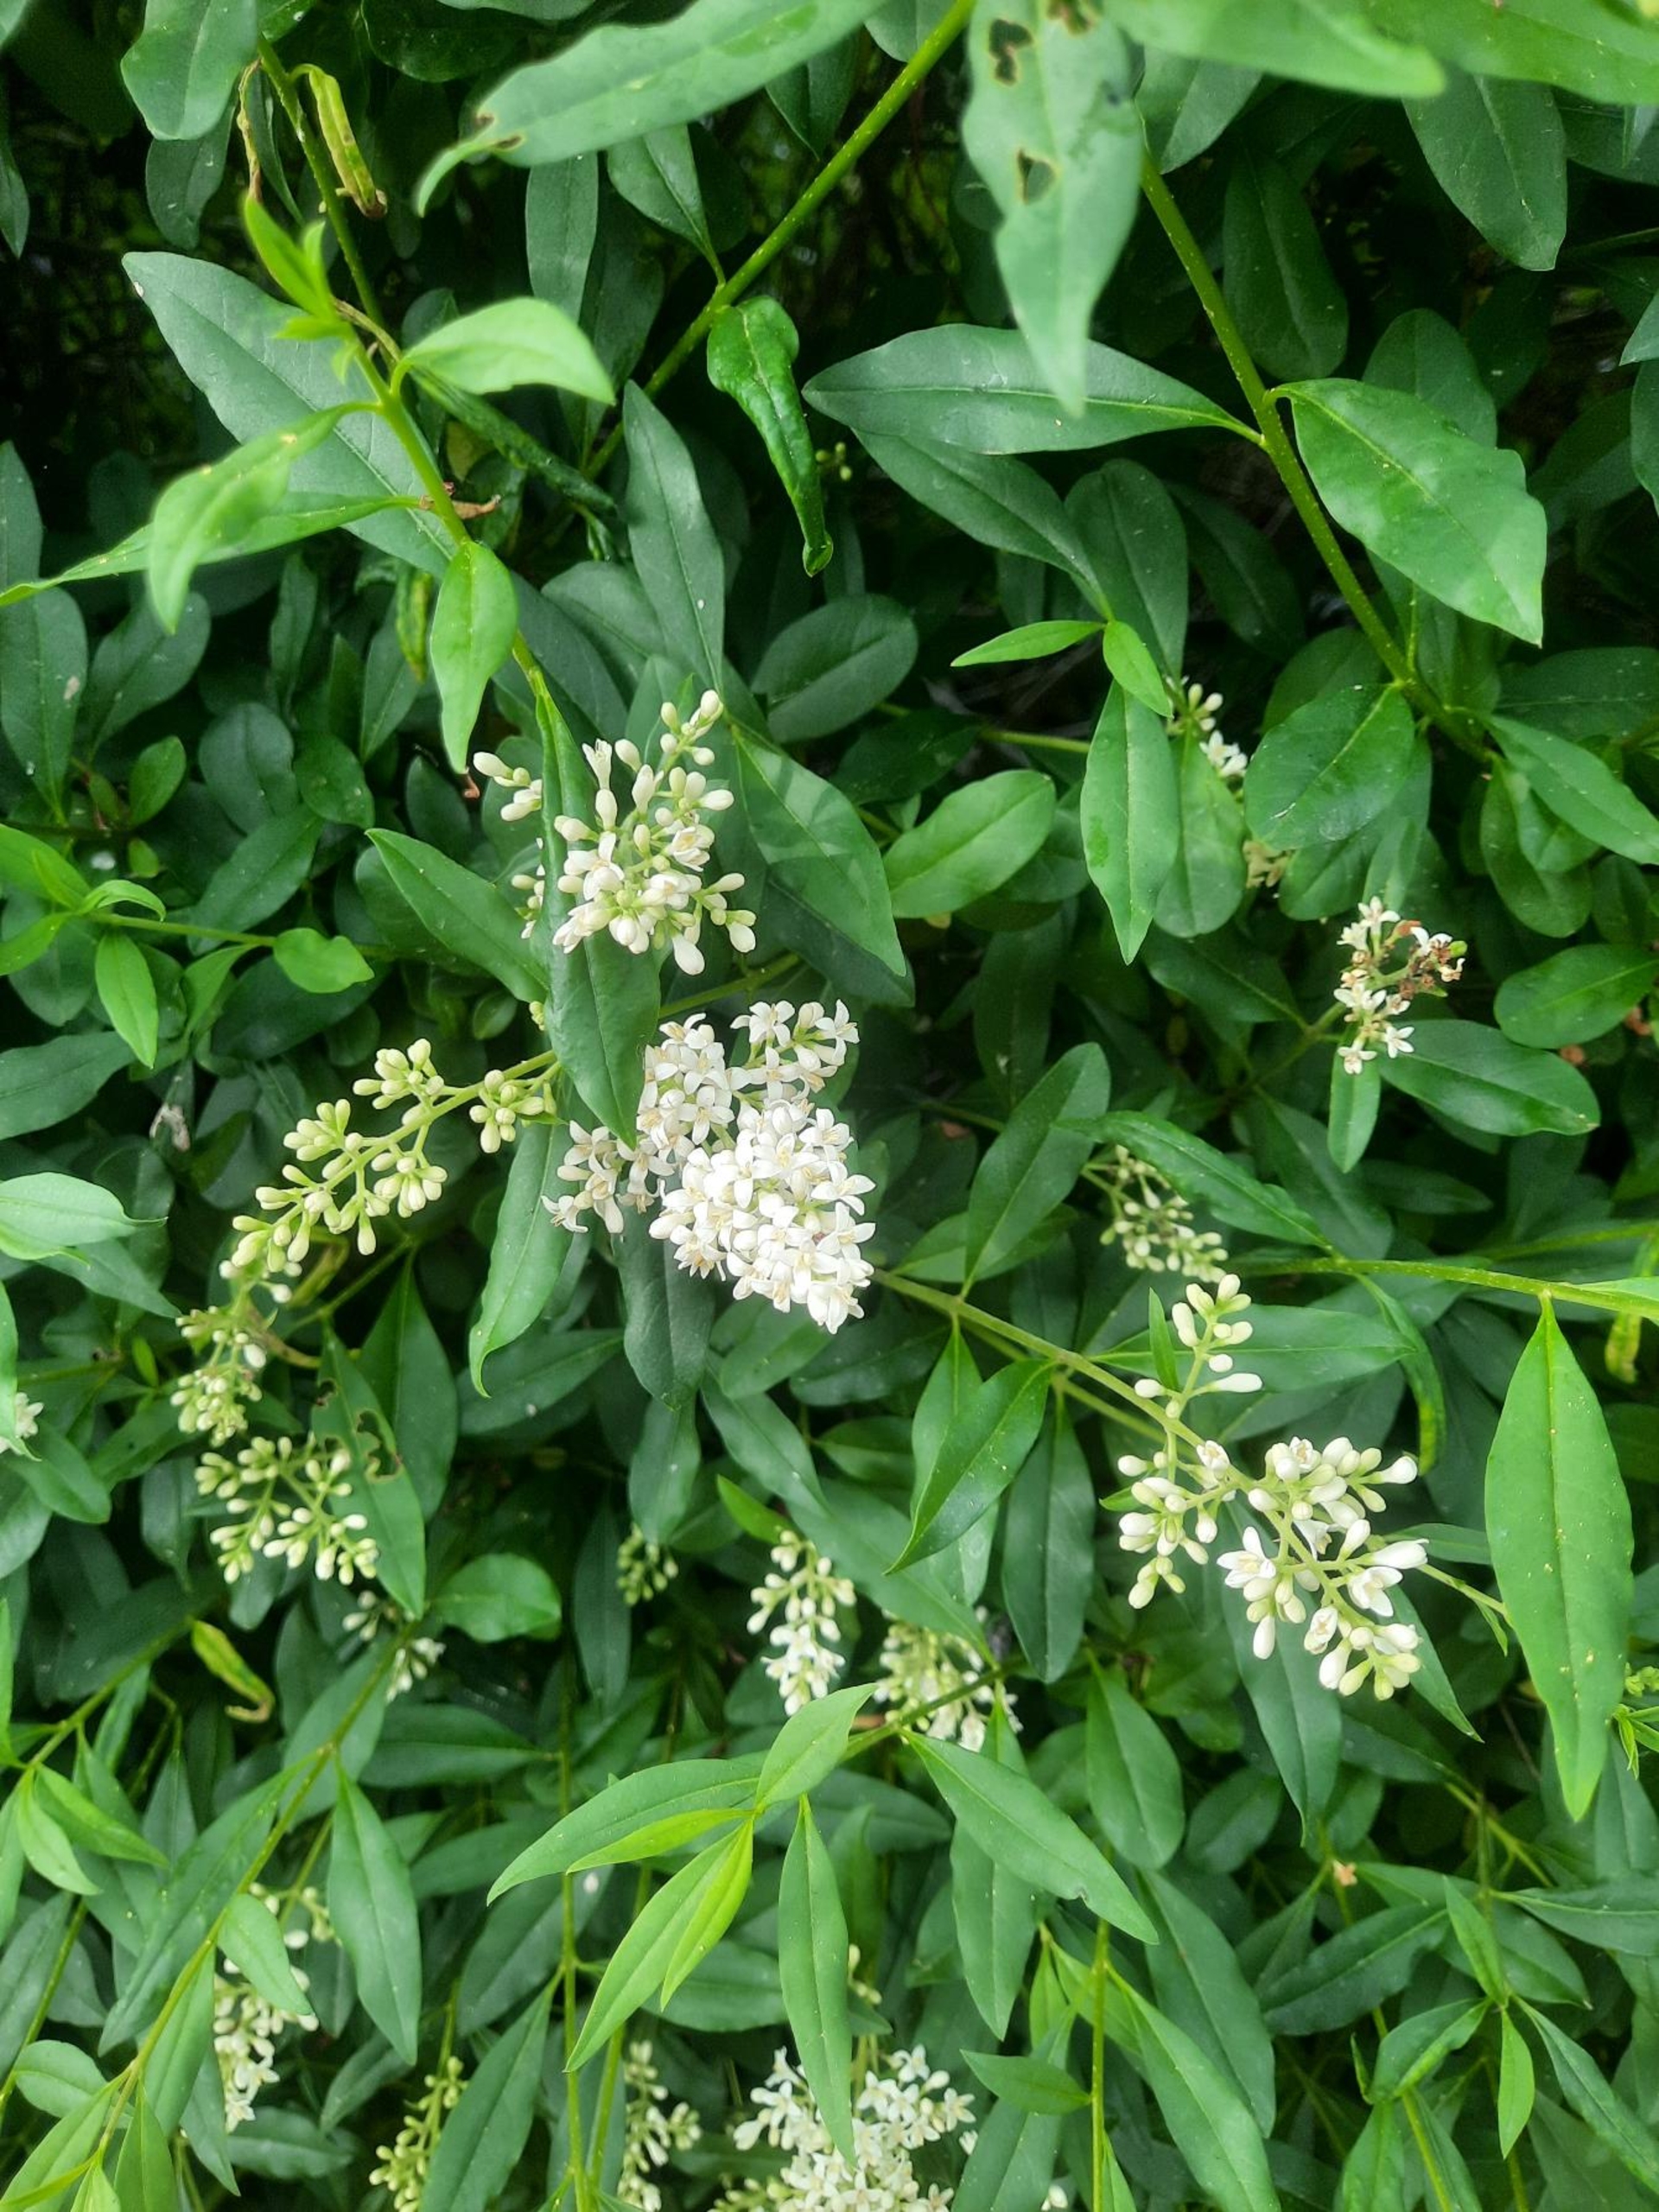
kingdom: Plantae
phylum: Tracheophyta
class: Magnoliopsida
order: Lamiales
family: Oleaceae
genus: Ligustrum
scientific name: Ligustrum vulgare
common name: Liguster
